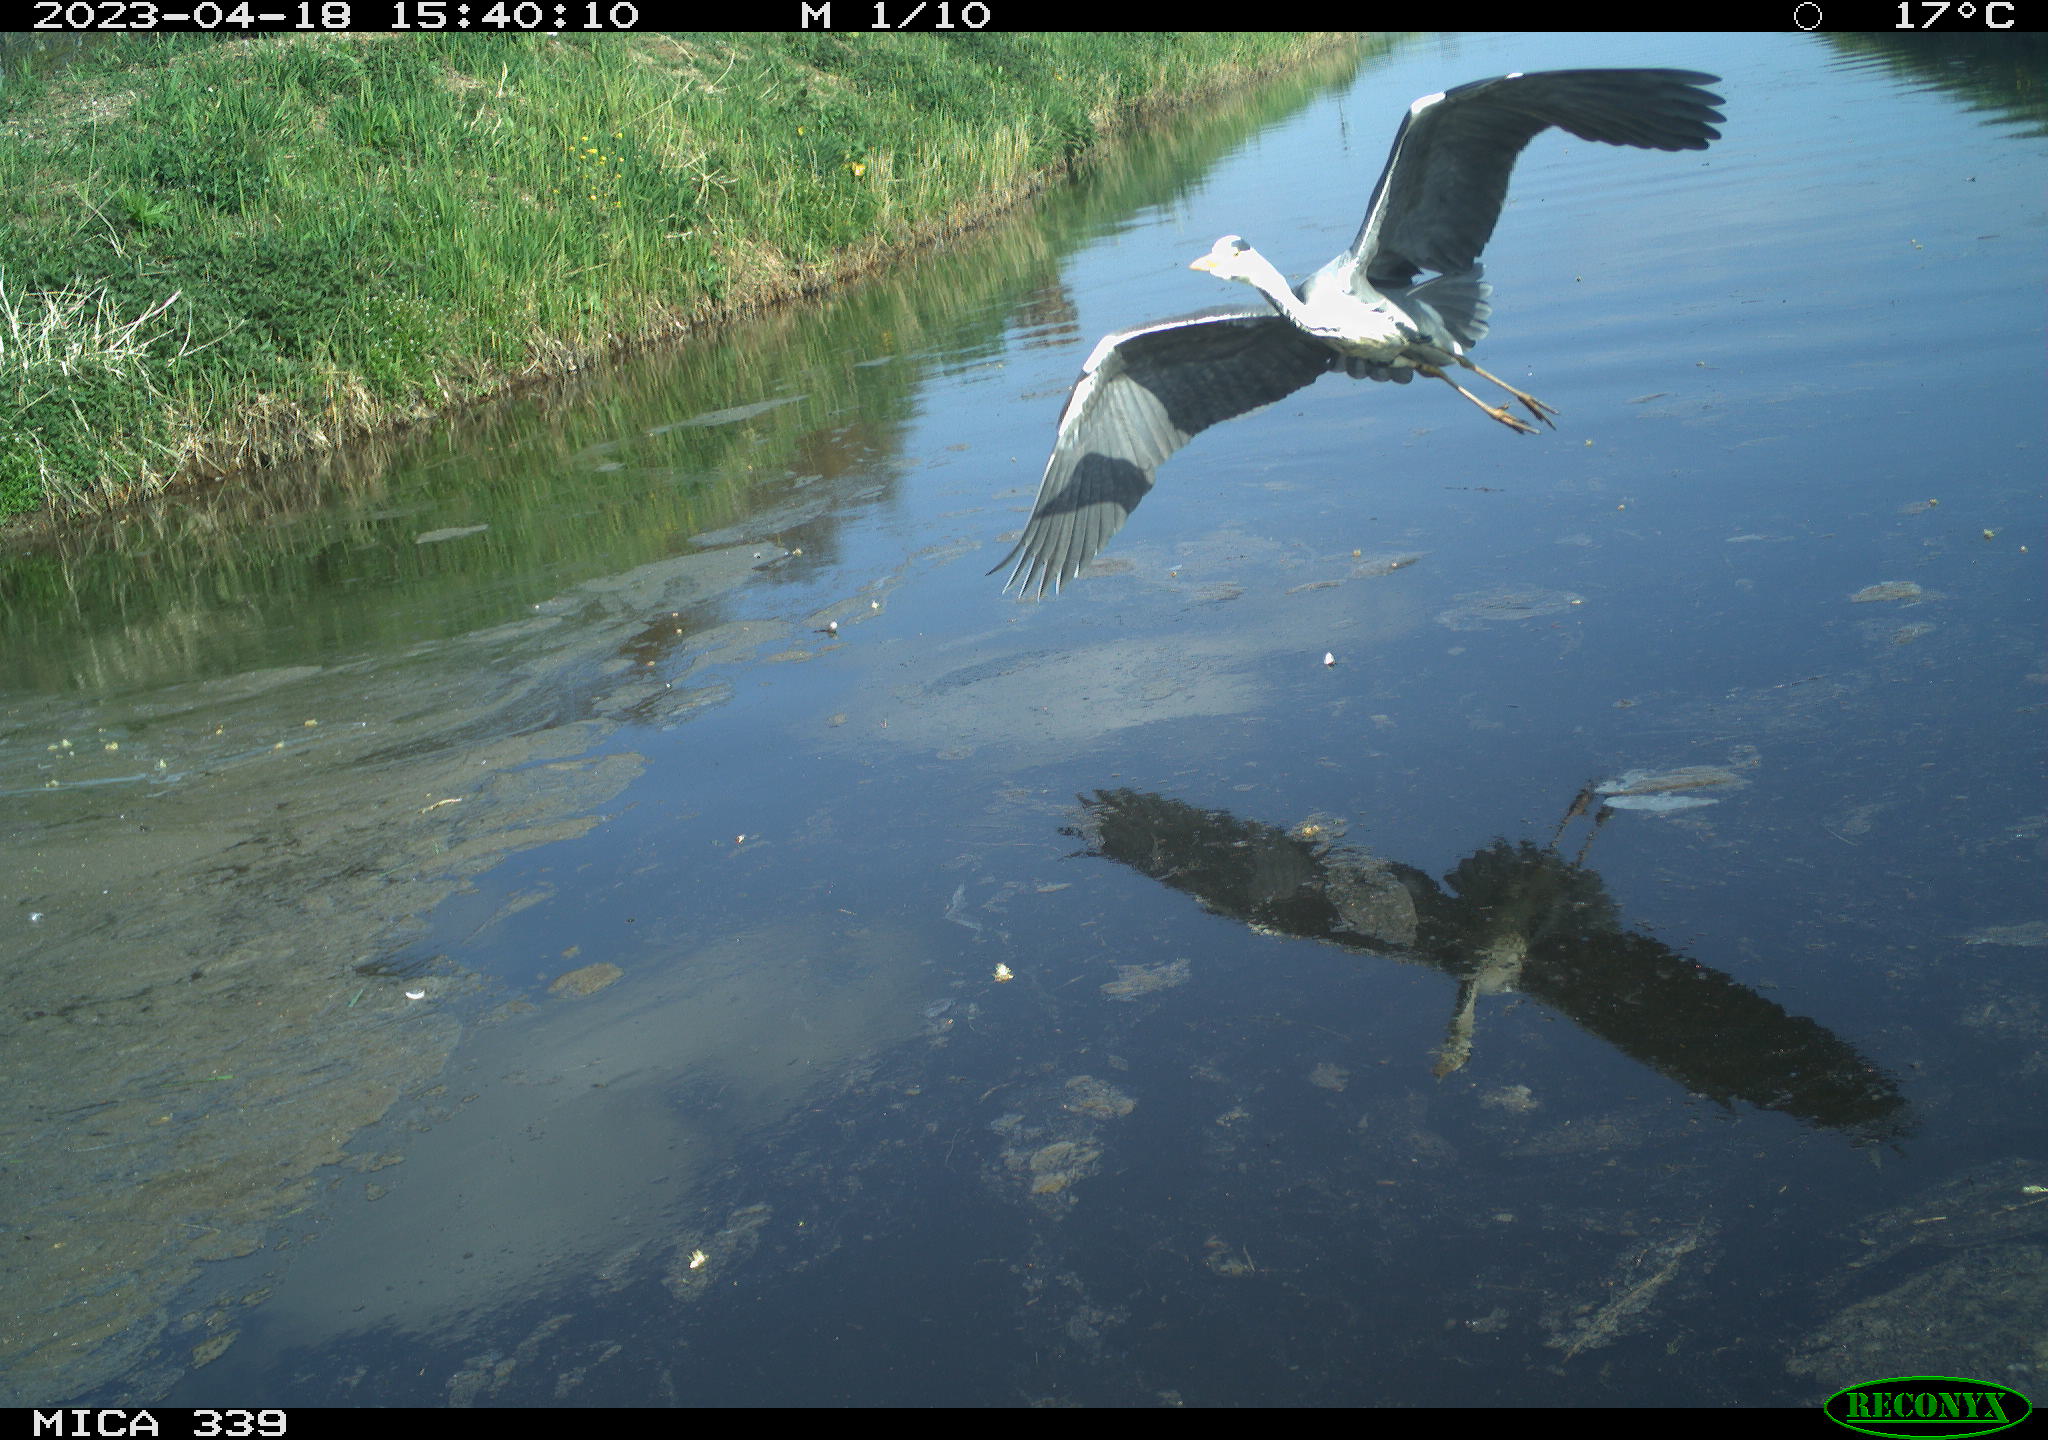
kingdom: Animalia
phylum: Chordata
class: Aves
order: Pelecaniformes
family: Ardeidae
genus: Ardea
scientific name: Ardea cinerea
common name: Grey heron
